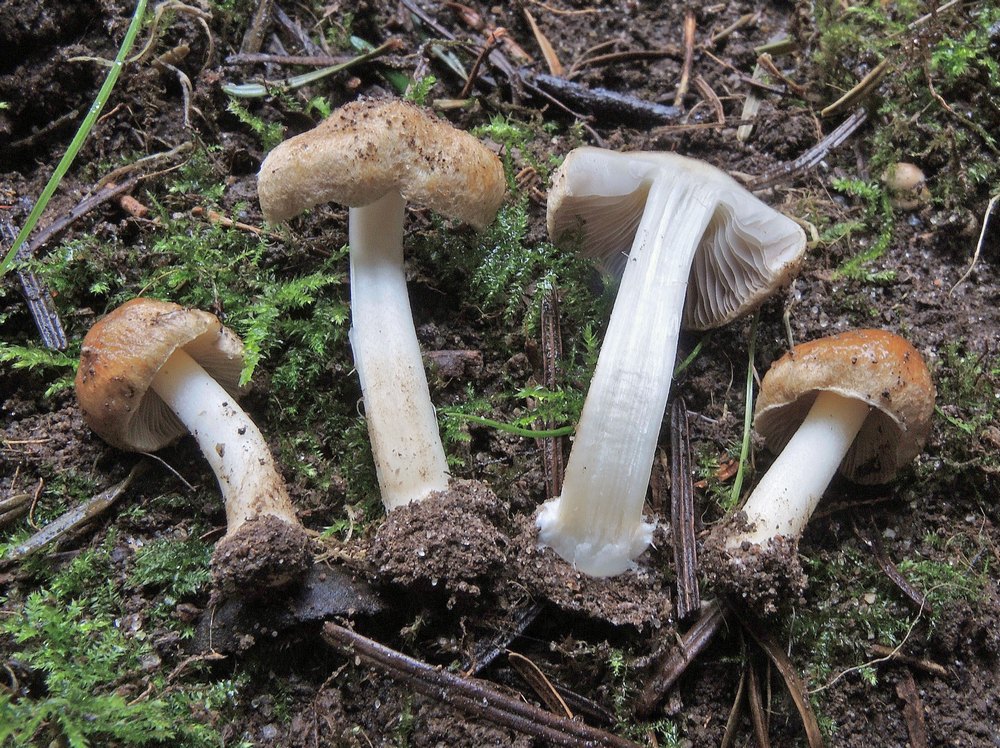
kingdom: Fungi
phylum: Basidiomycota
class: Agaricomycetes
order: Agaricales
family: Inocybaceae
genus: Inocybe
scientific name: Inocybe mixtilis
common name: randknoldet trævlhat
